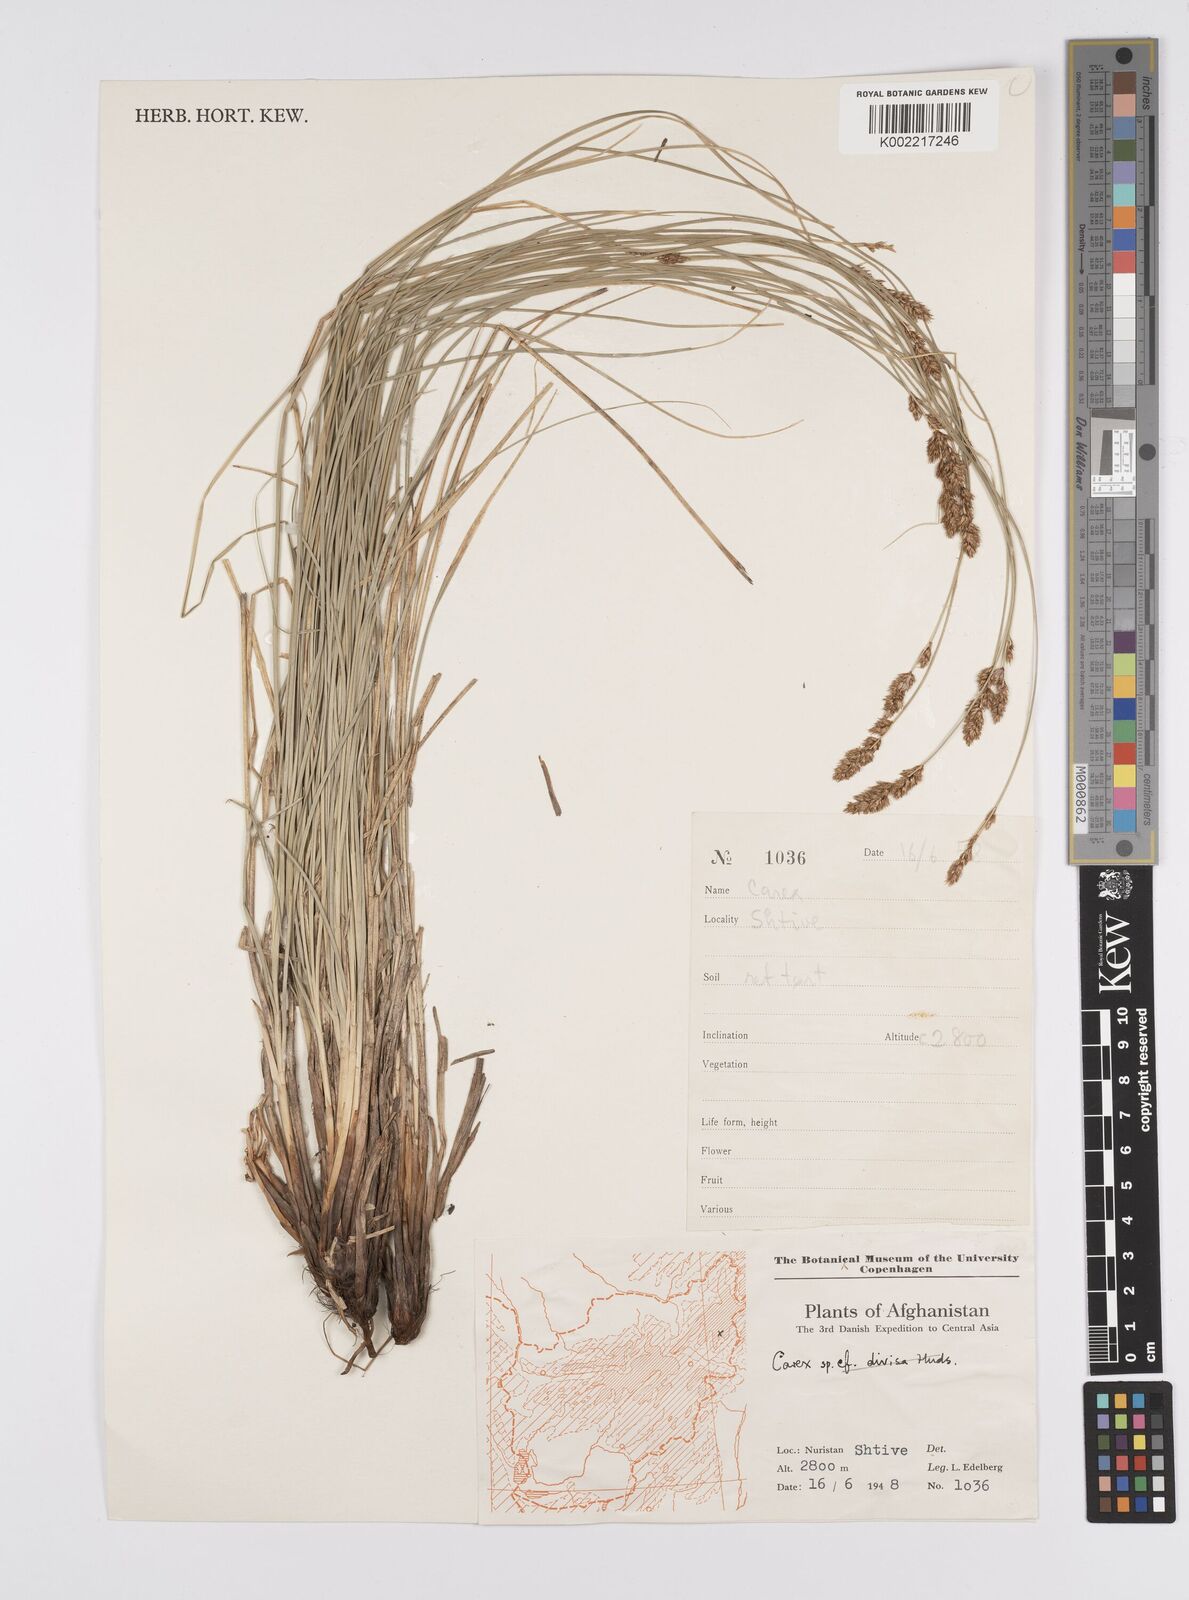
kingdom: Plantae
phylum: Tracheophyta
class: Liliopsida
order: Poales
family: Cyperaceae
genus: Carex
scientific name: Carex
